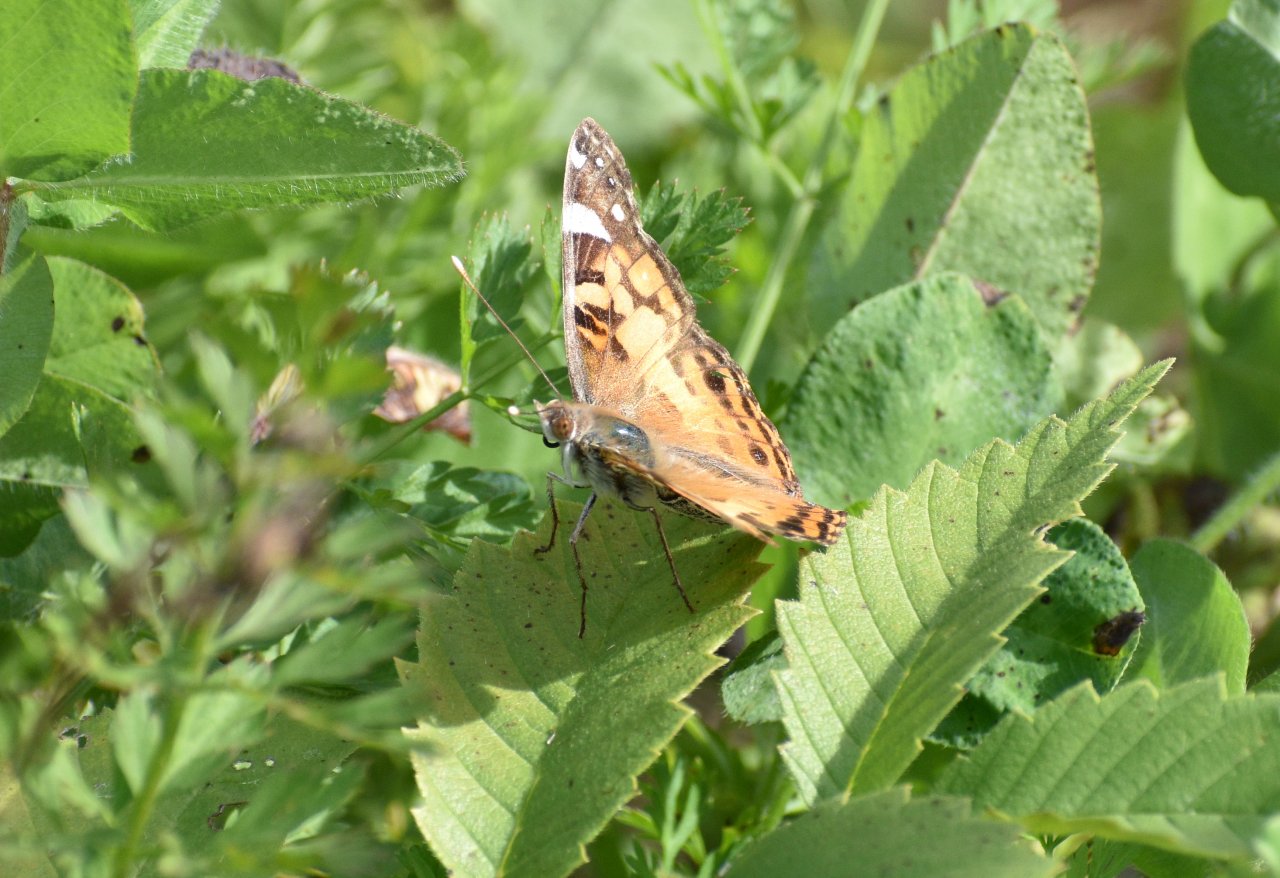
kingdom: Animalia
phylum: Arthropoda
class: Insecta
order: Lepidoptera
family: Nymphalidae
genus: Vanessa
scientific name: Vanessa virginiensis
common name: American Lady
